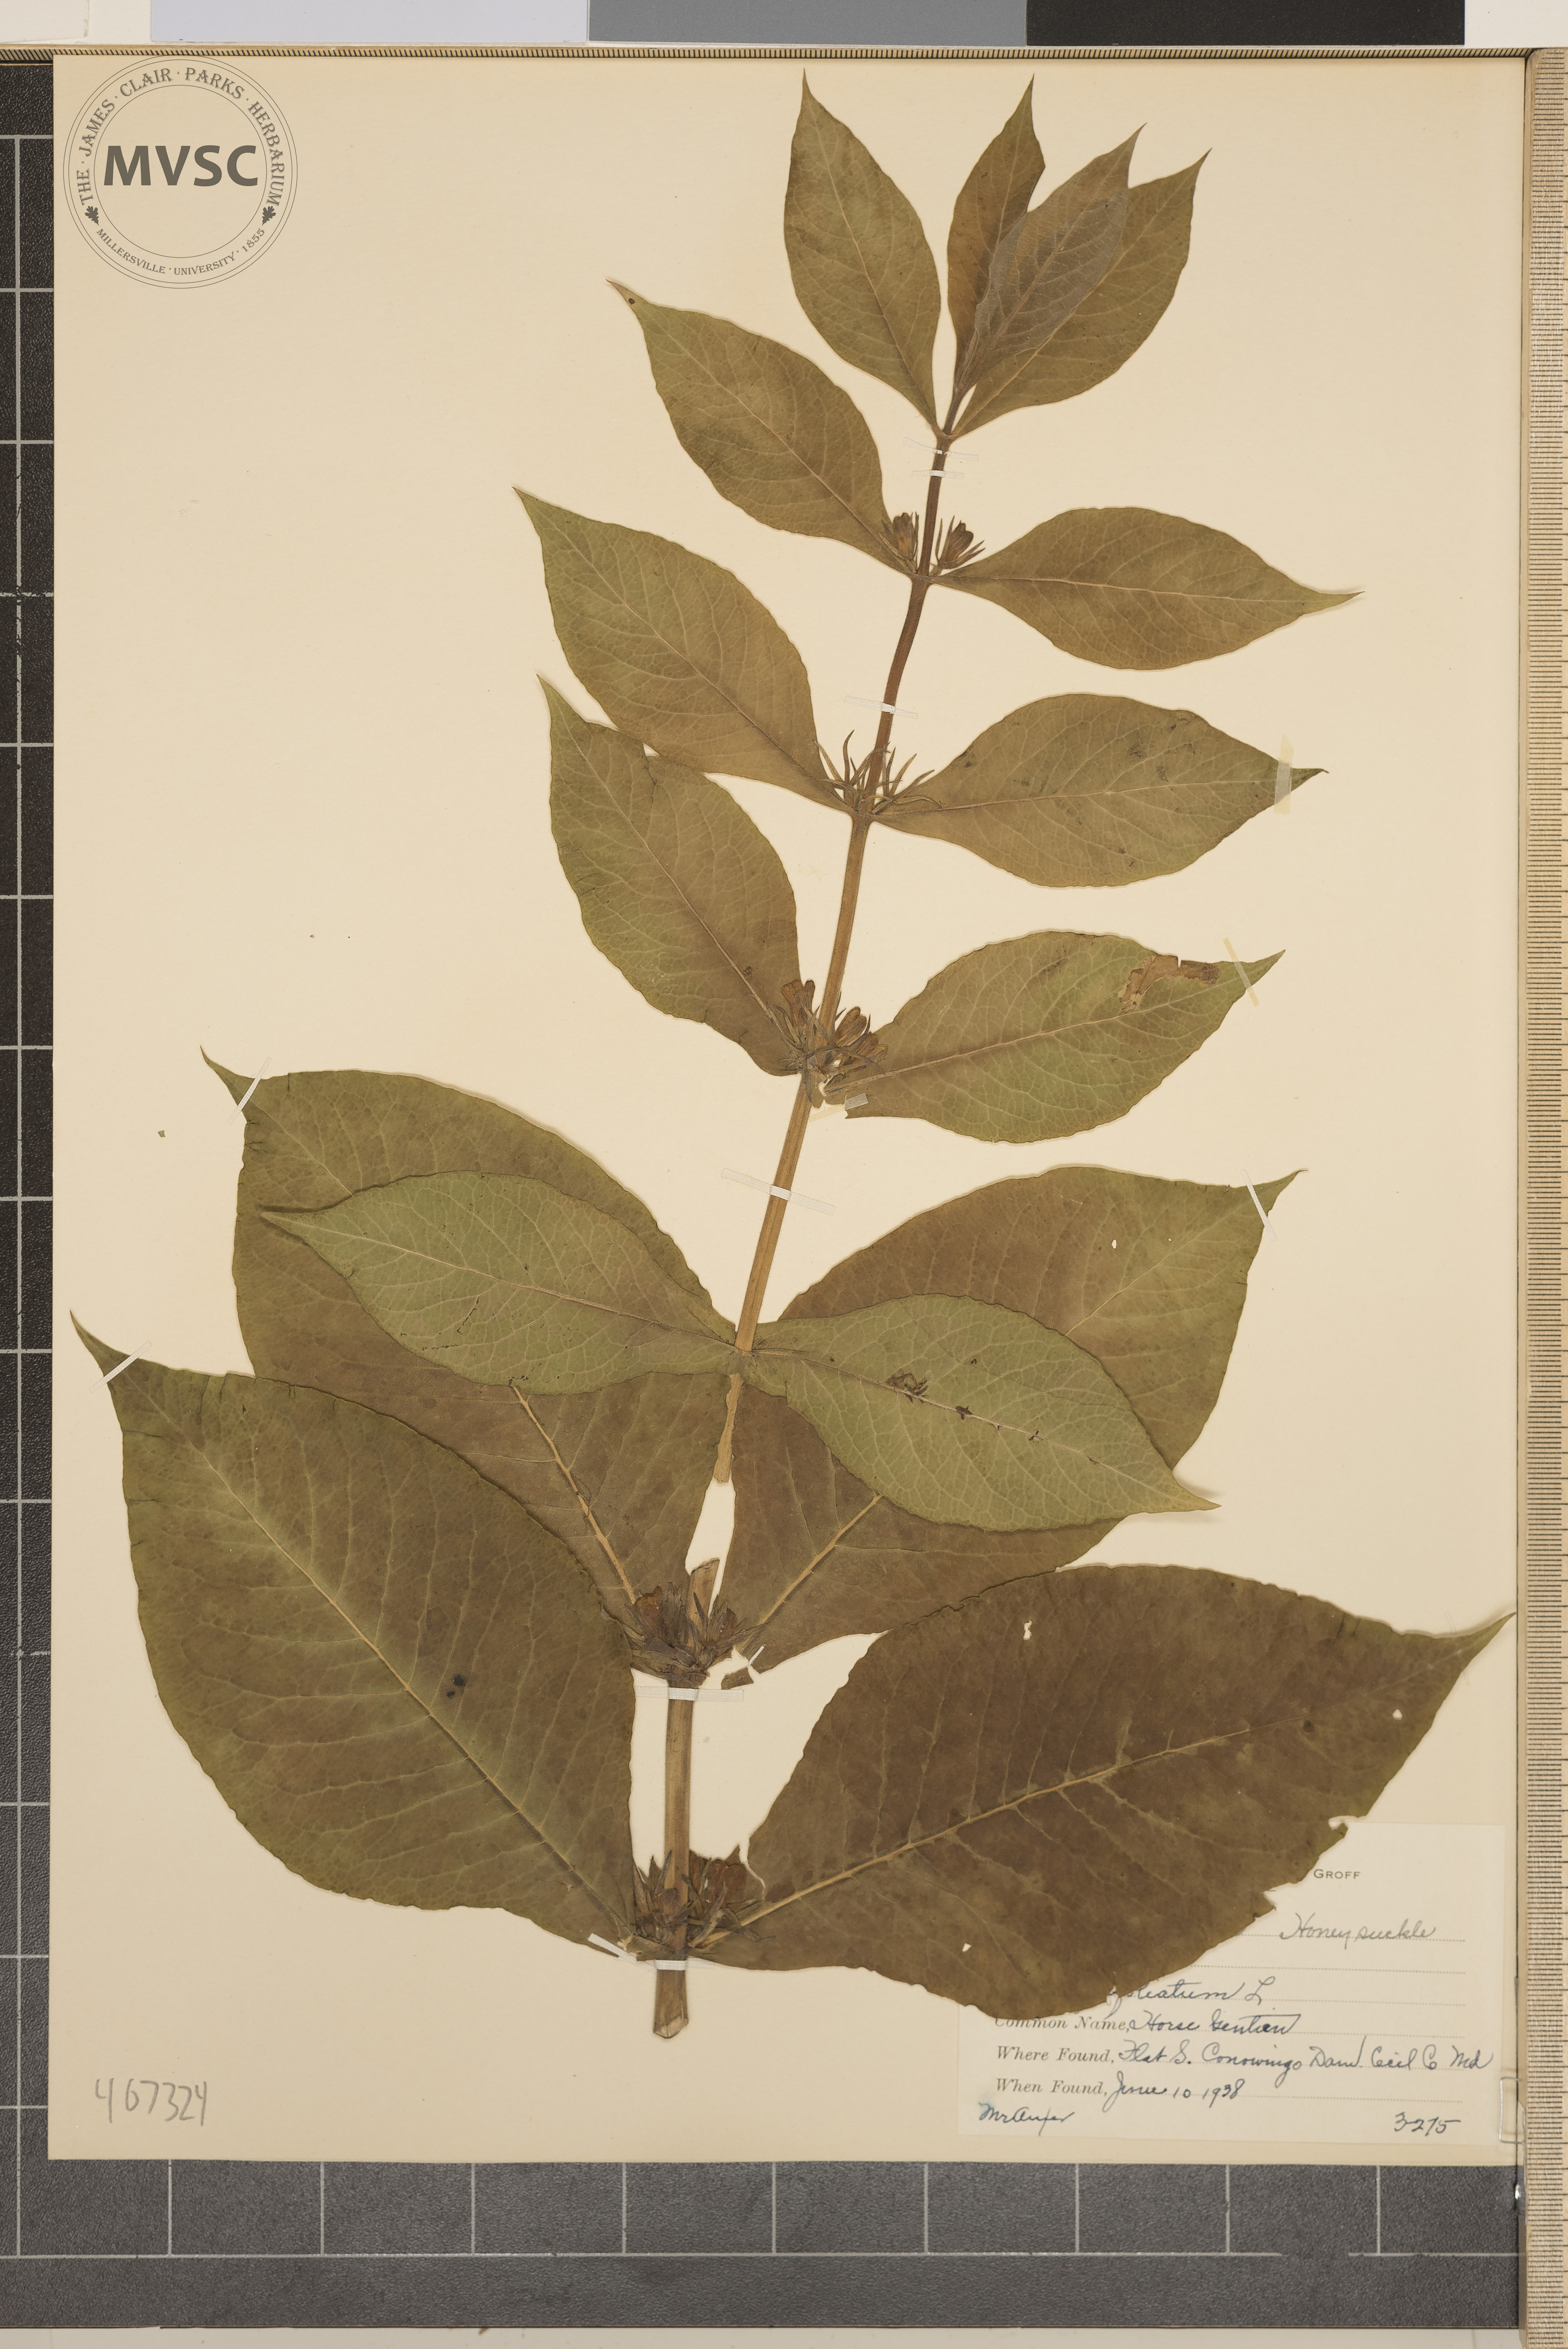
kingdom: Plantae
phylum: Tracheophyta
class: Magnoliopsida
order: Dipsacales
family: Caprifoliaceae
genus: Triosteum
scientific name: Triosteum perfoliatum
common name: Horse-gentian
